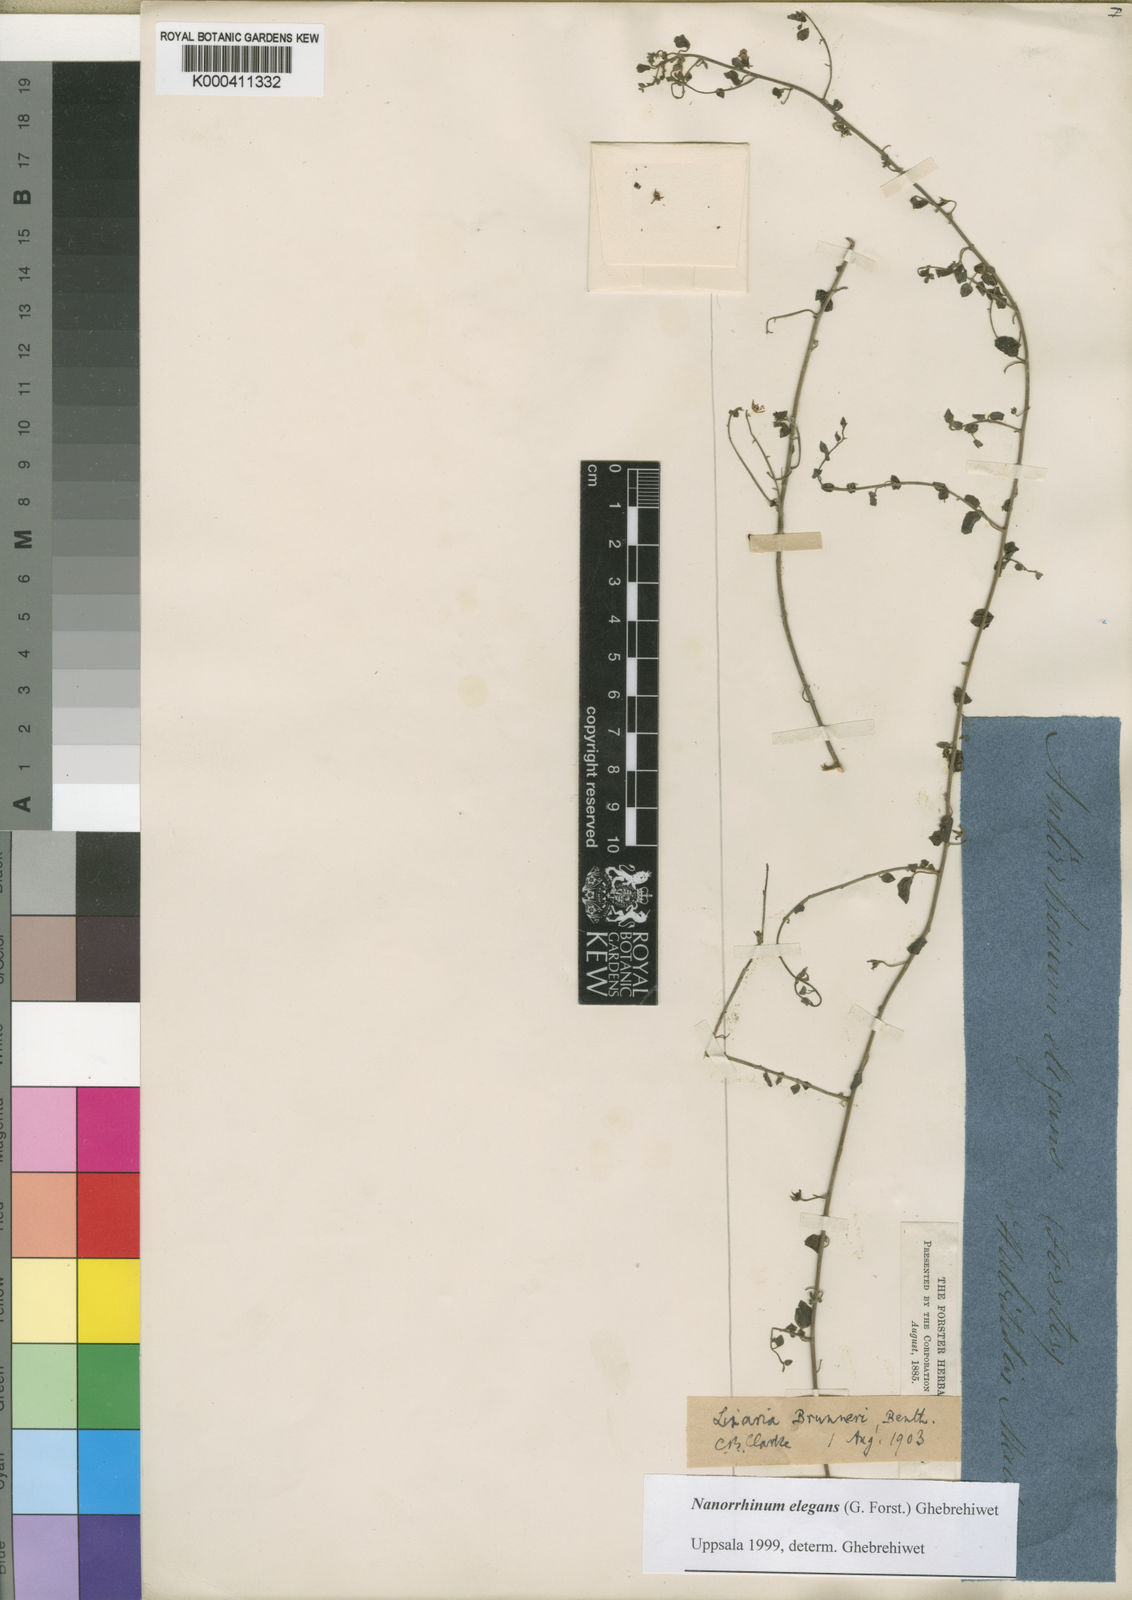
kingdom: Plantae
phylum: Tracheophyta
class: Magnoliopsida
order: Lamiales
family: Plantaginaceae
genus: Nanorrhinum
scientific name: Nanorrhinum elegans
